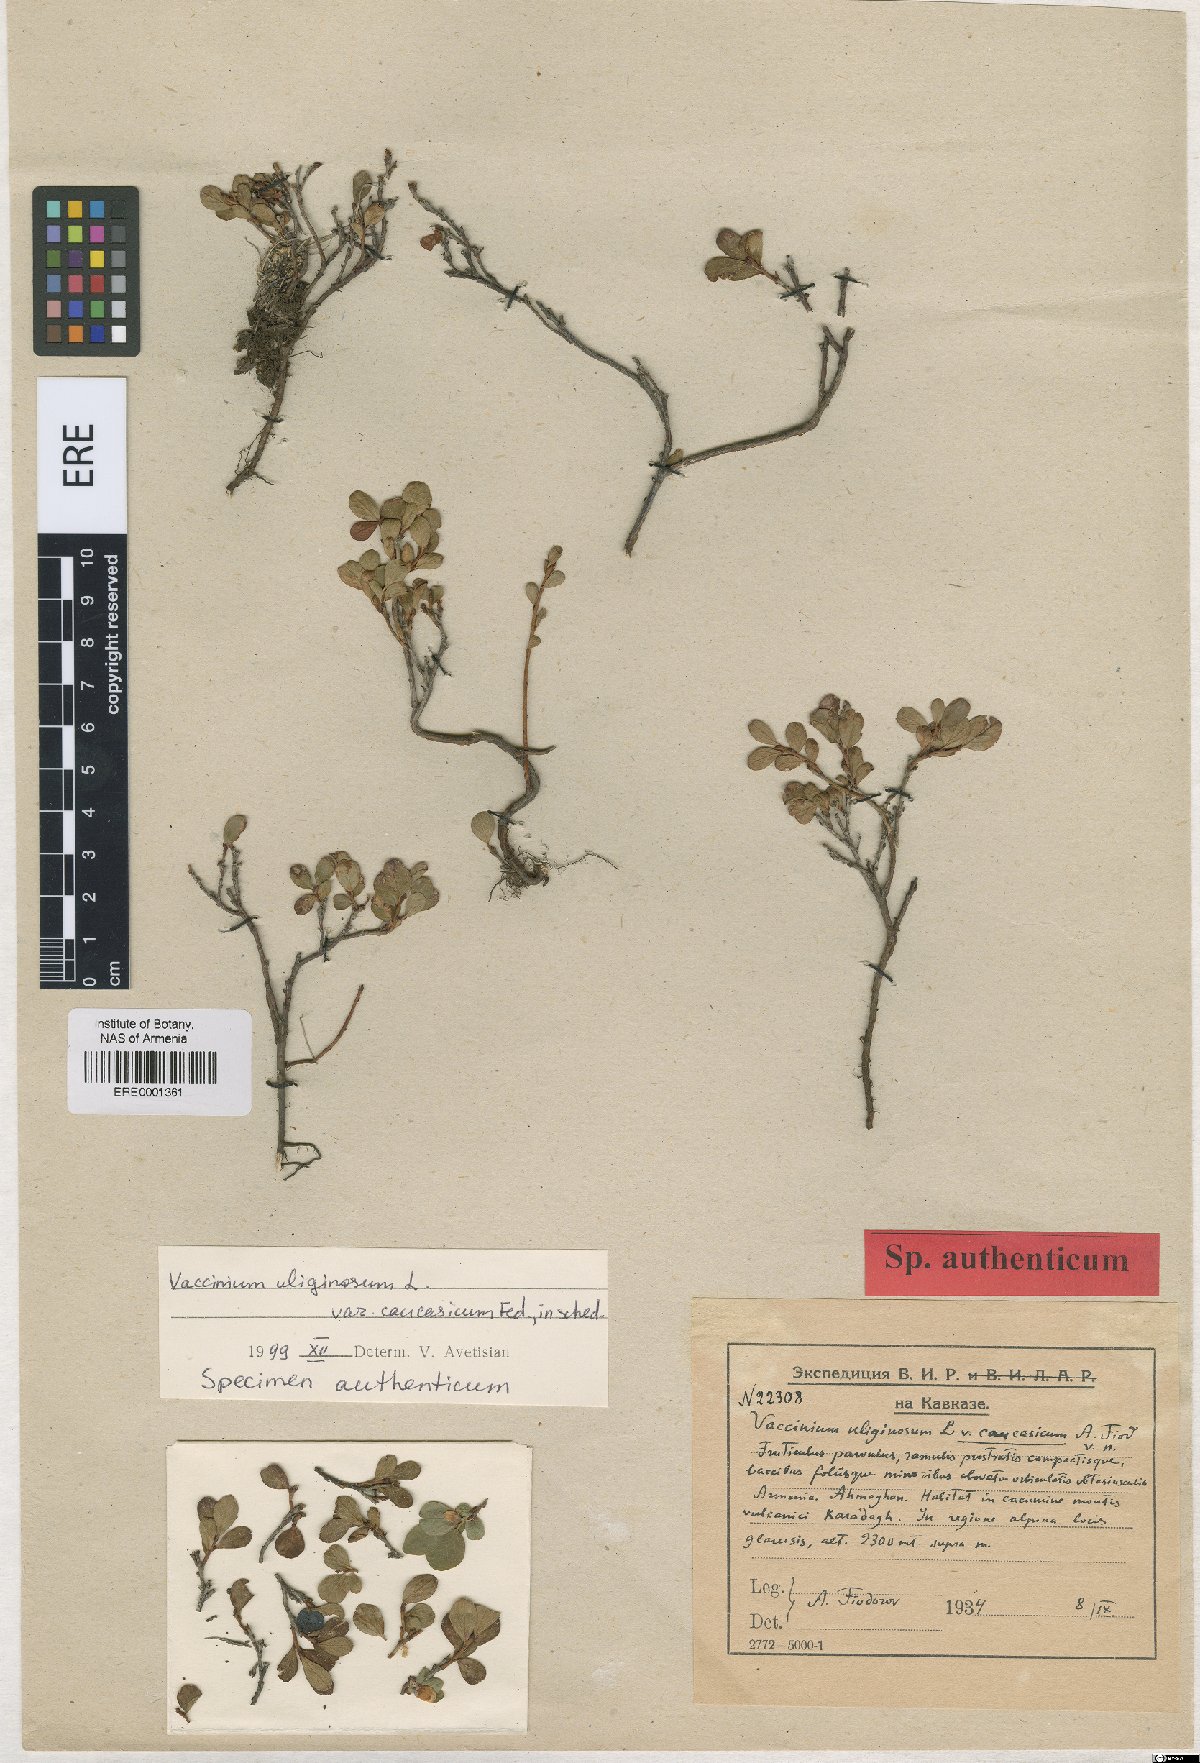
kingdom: Plantae
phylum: Tracheophyta
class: Magnoliopsida
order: Ericales
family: Ericaceae
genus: Vaccinium
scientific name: Vaccinium uliginosum
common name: Bog bilberry
